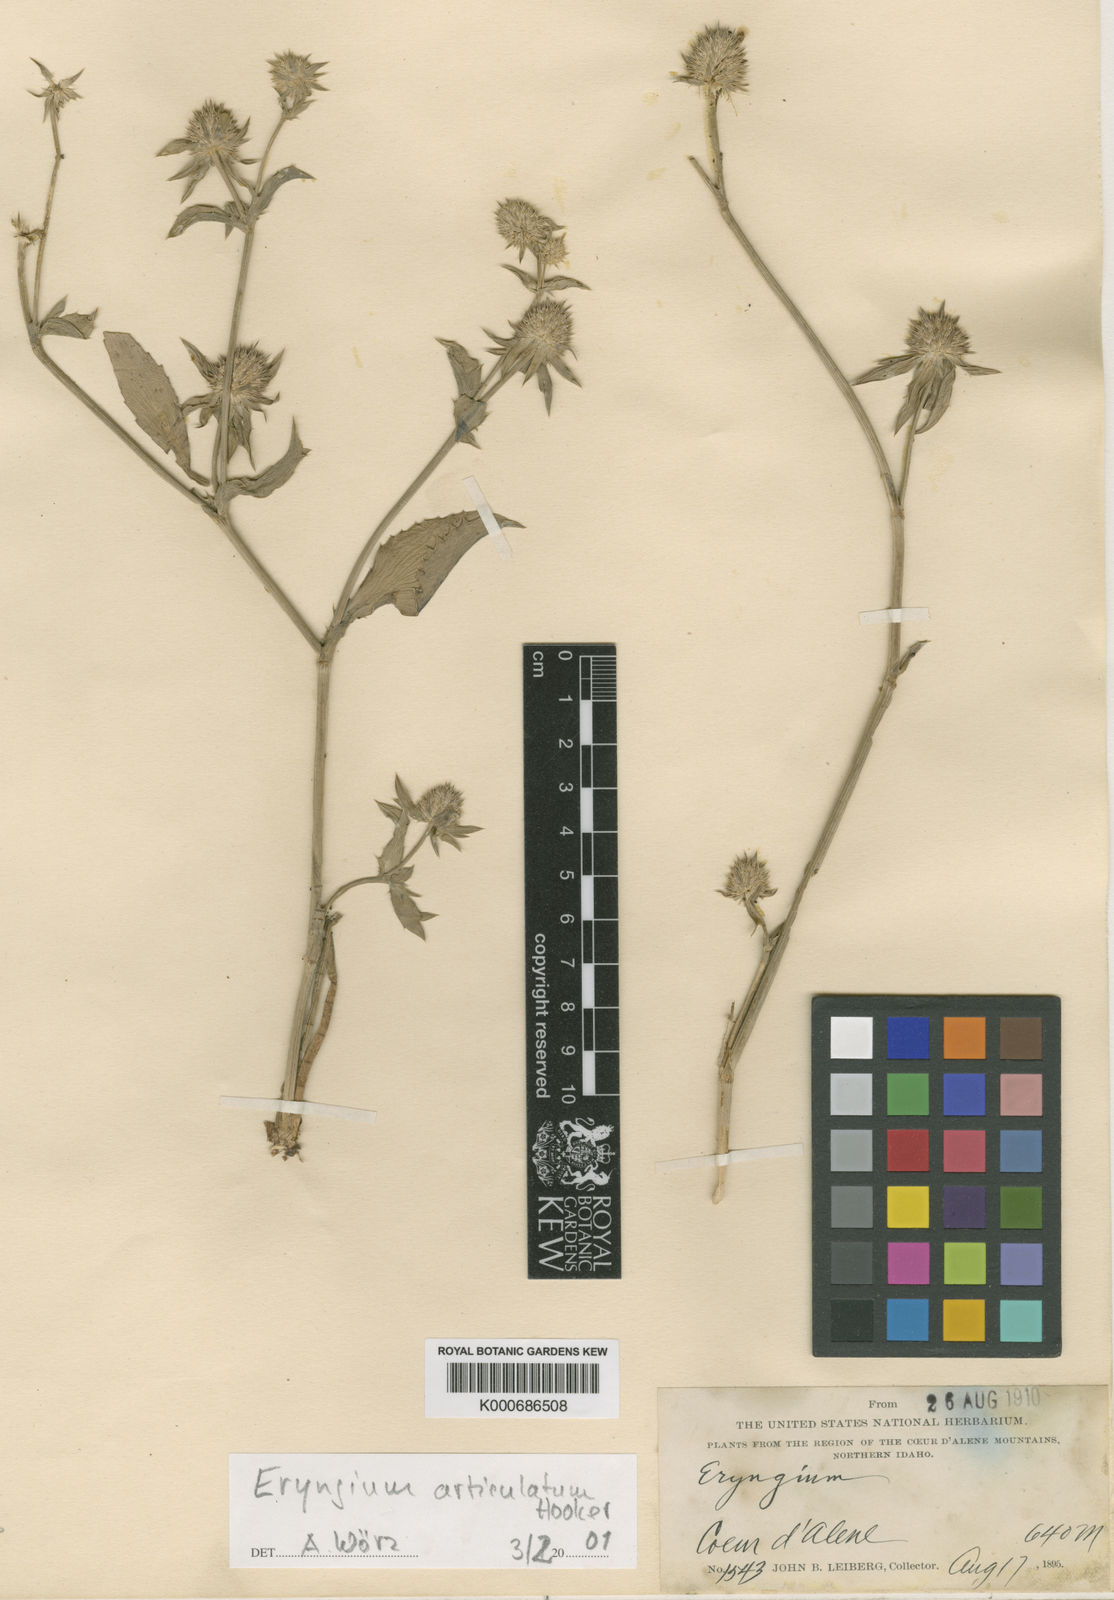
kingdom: Plantae
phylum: Tracheophyta
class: Magnoliopsida
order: Apiales
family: Apiaceae
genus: Eryngium
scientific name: Eryngium articulatum
